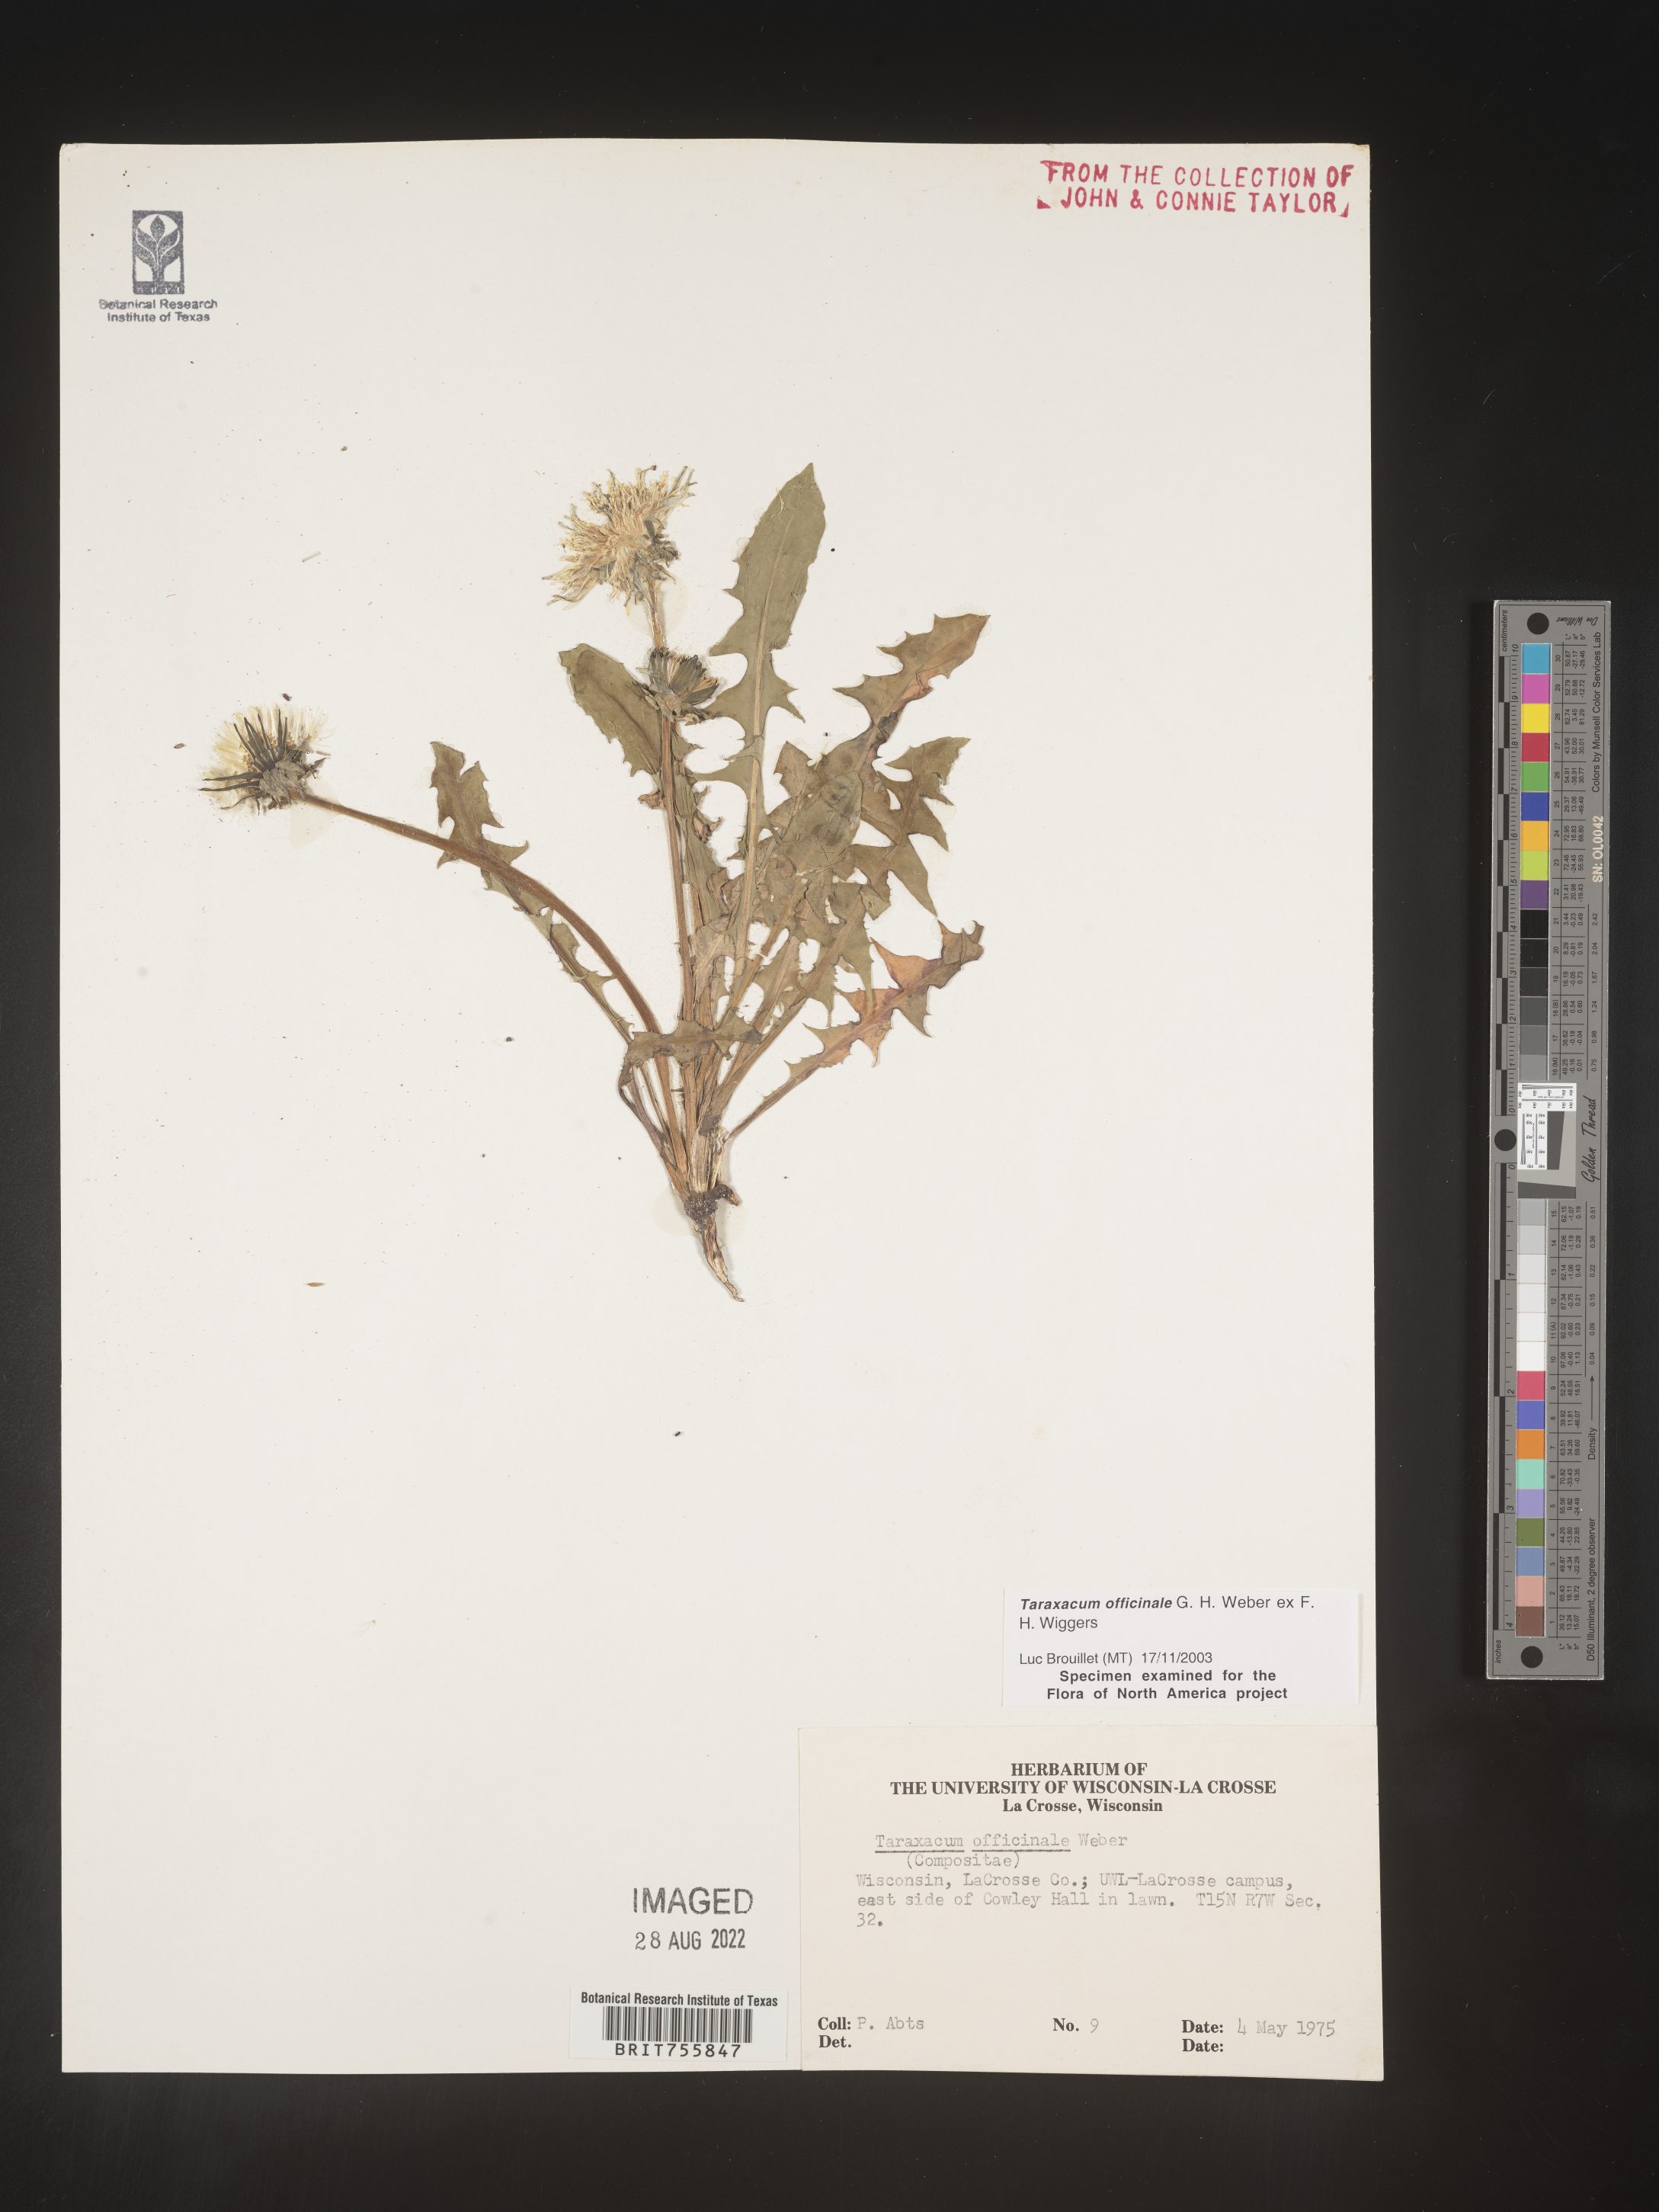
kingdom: Plantae
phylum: Tracheophyta
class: Magnoliopsida
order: Asterales
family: Asteraceae
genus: Taraxacum
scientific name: Taraxacum officinale
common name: Common dandelion
